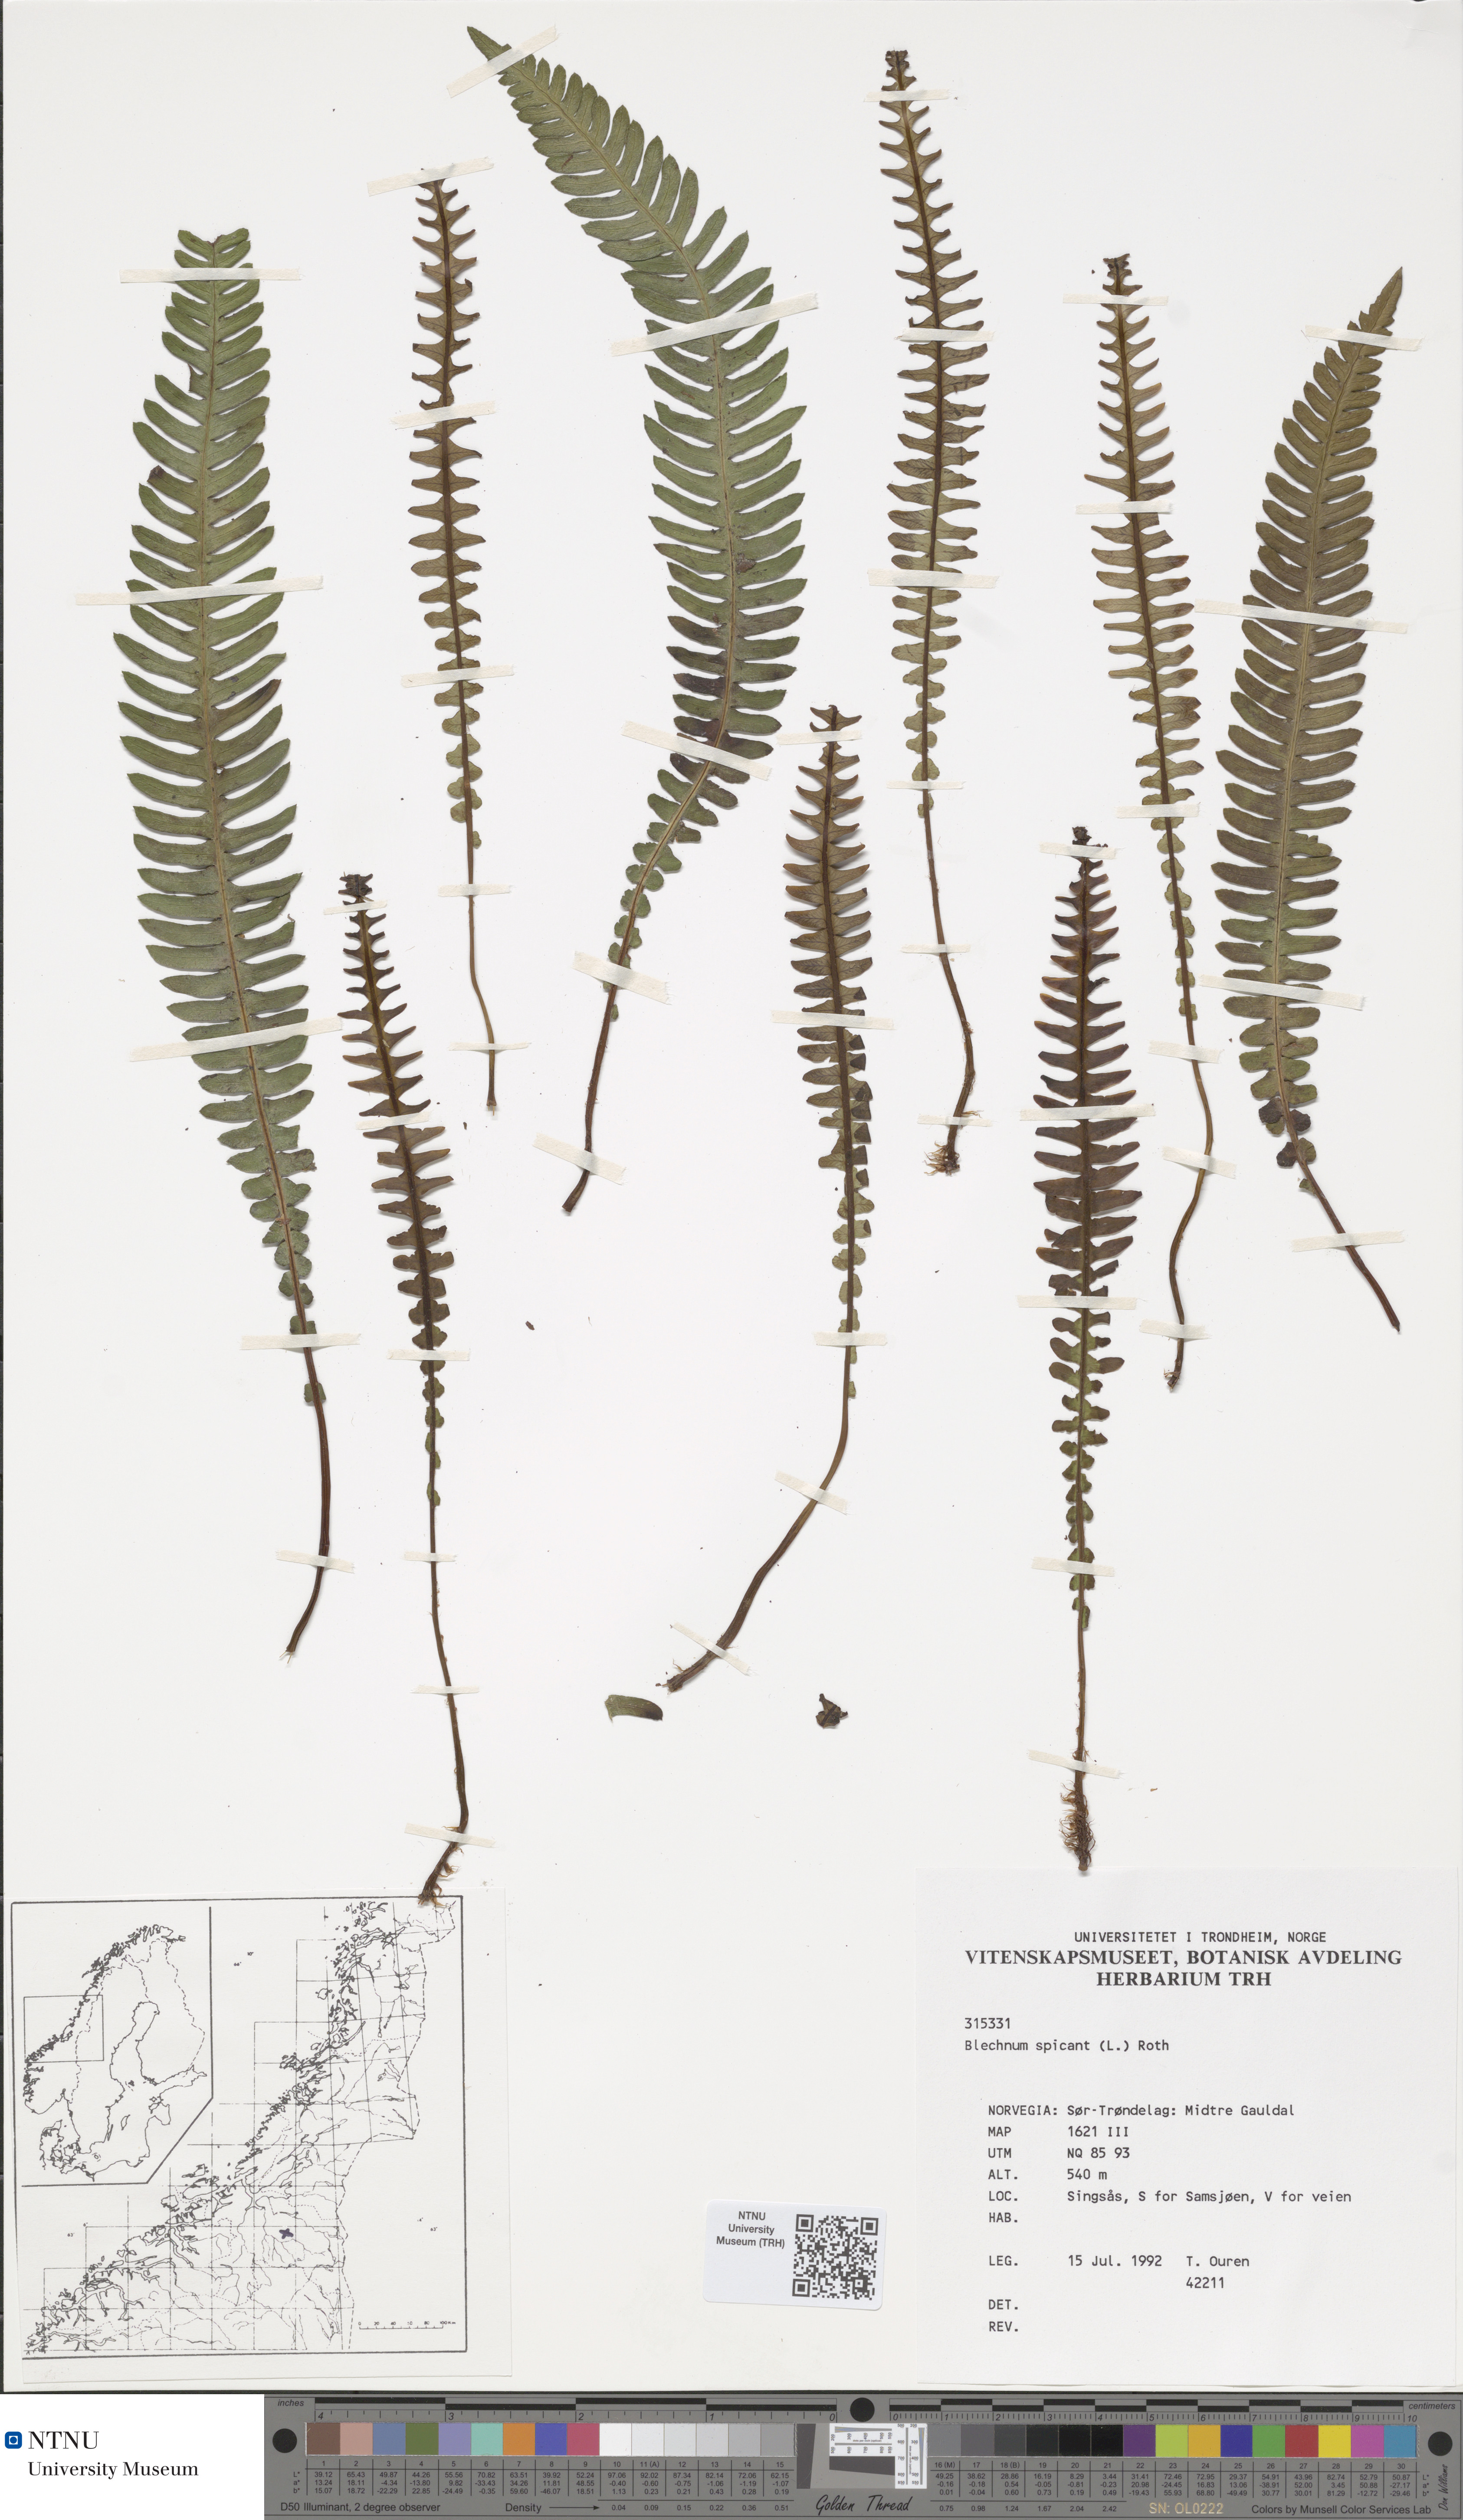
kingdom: Plantae
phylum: Tracheophyta
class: Polypodiopsida
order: Polypodiales
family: Blechnaceae
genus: Struthiopteris
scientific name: Struthiopteris spicant
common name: Deer fern
